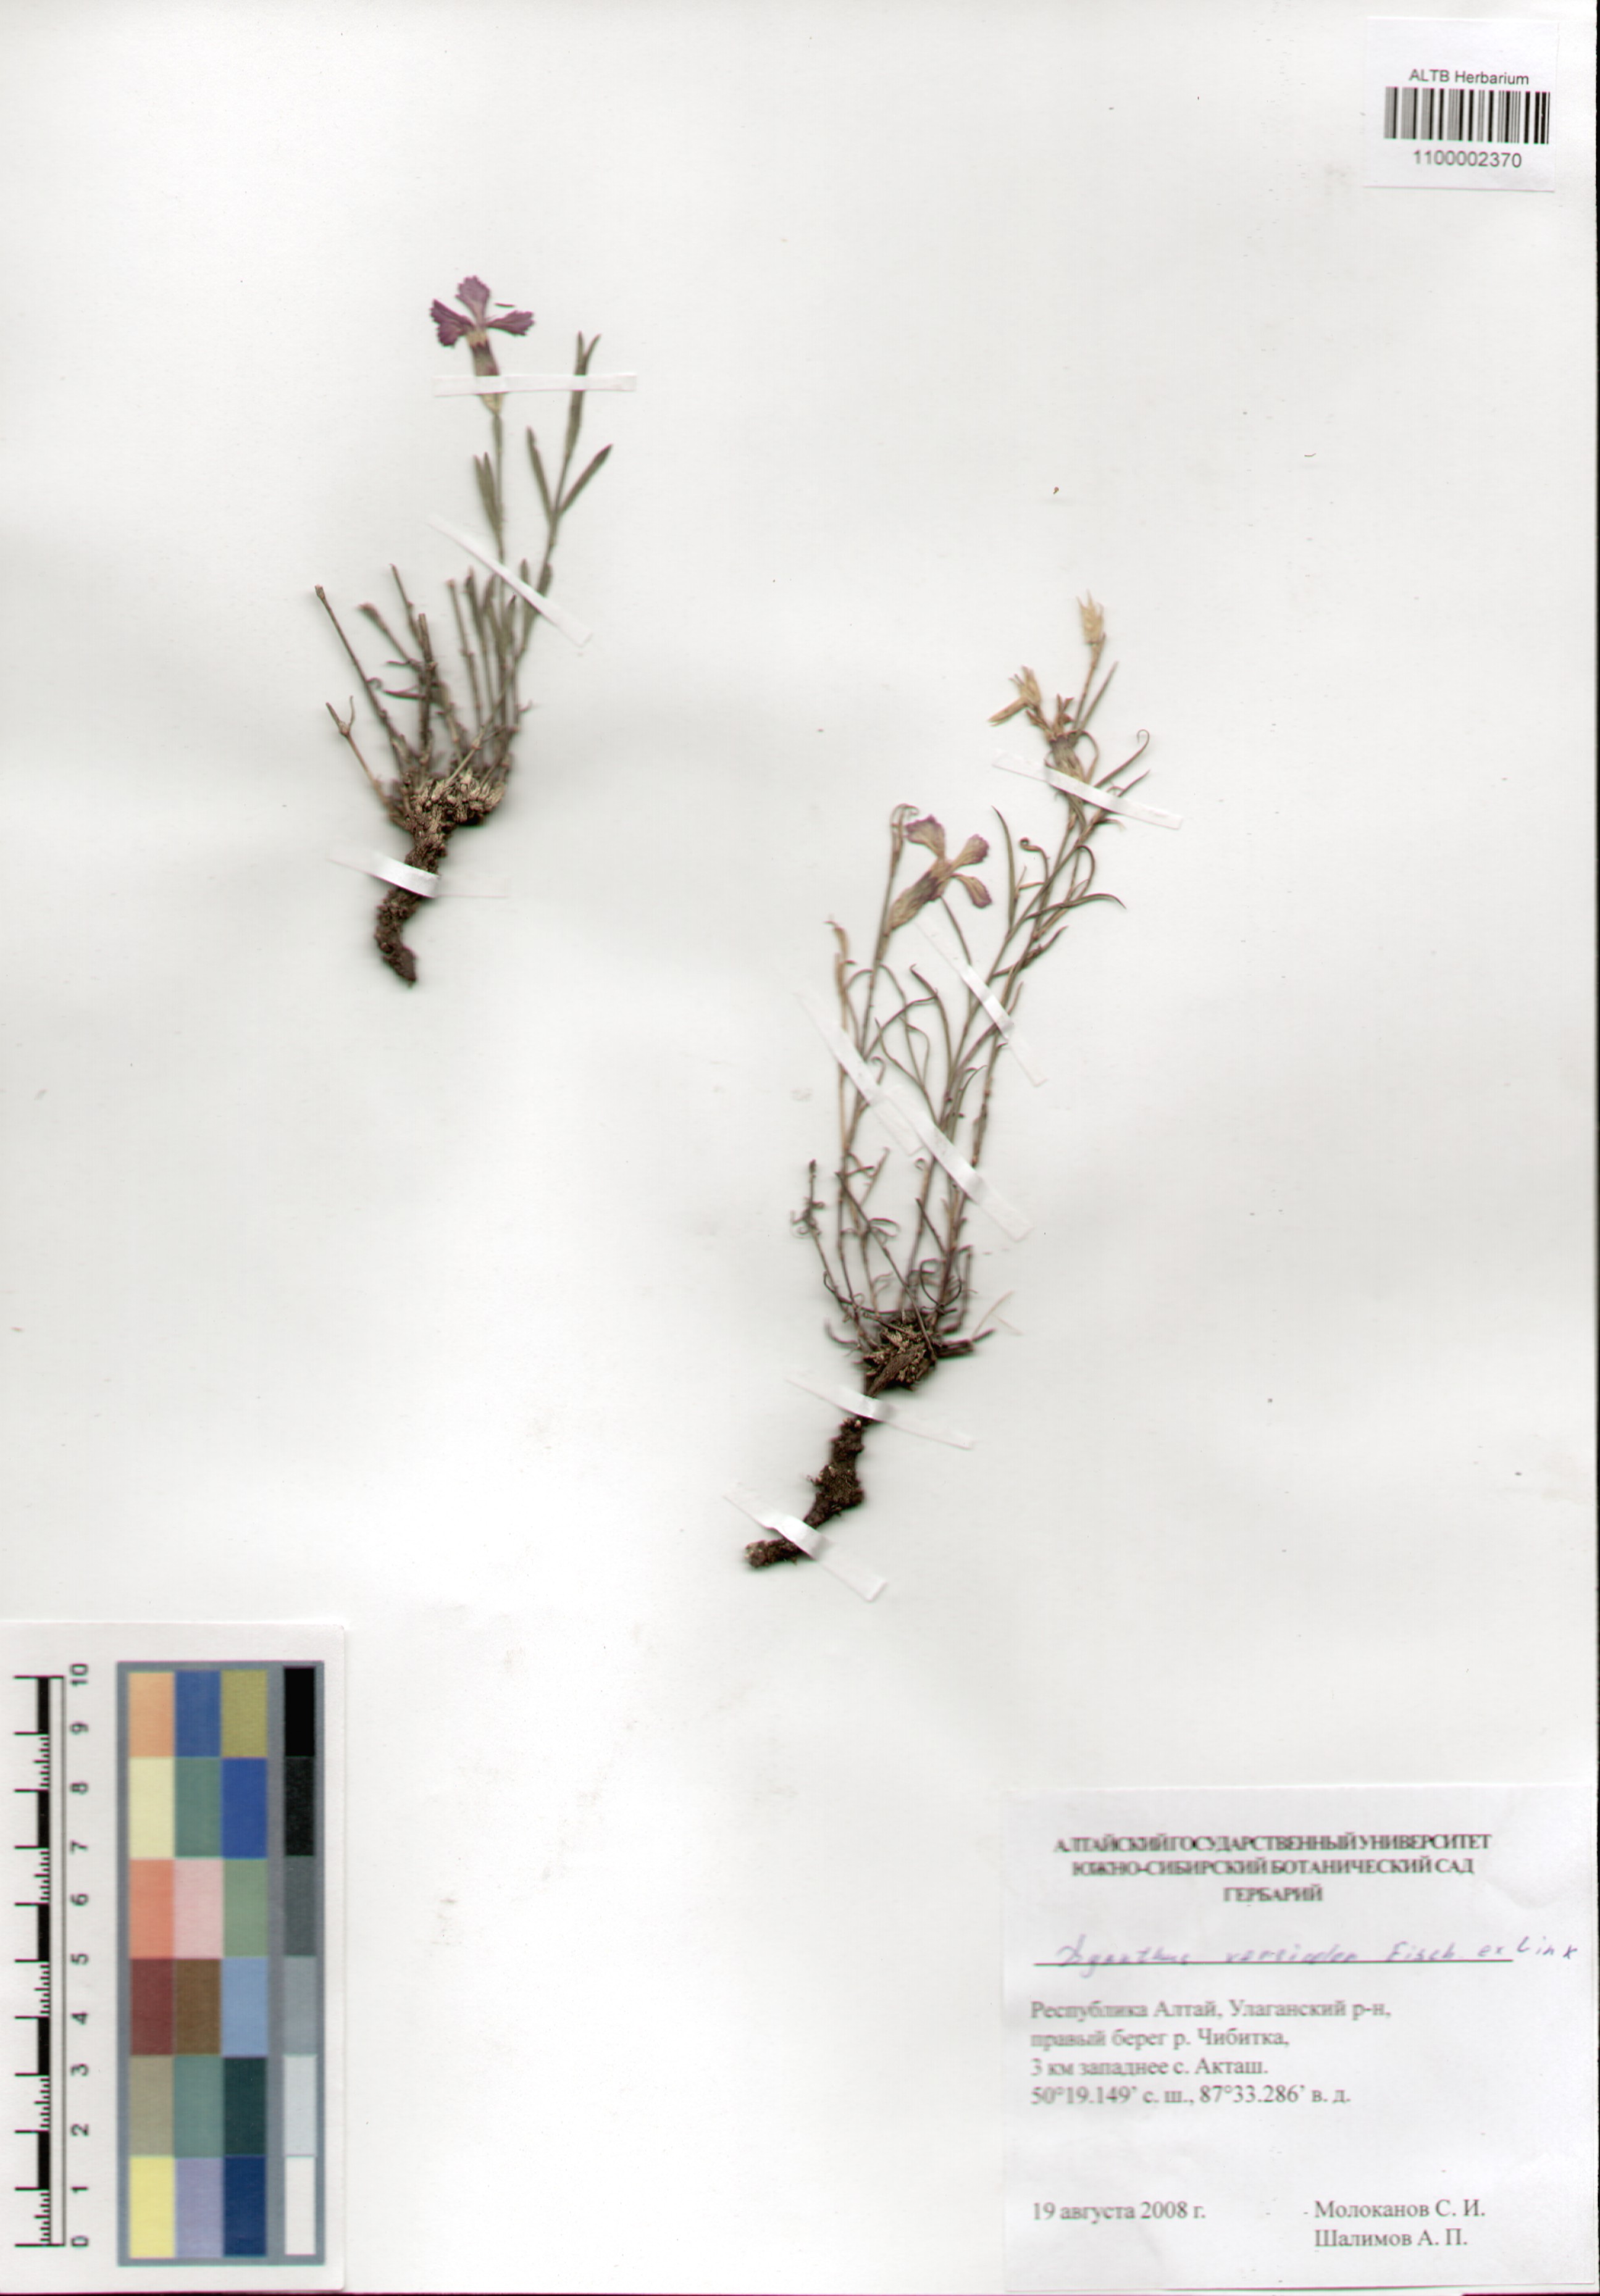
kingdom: Plantae
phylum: Tracheophyta
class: Magnoliopsida
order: Caryophyllales
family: Caryophyllaceae
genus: Dianthus
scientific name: Dianthus chinensis
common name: Rainbow pink
